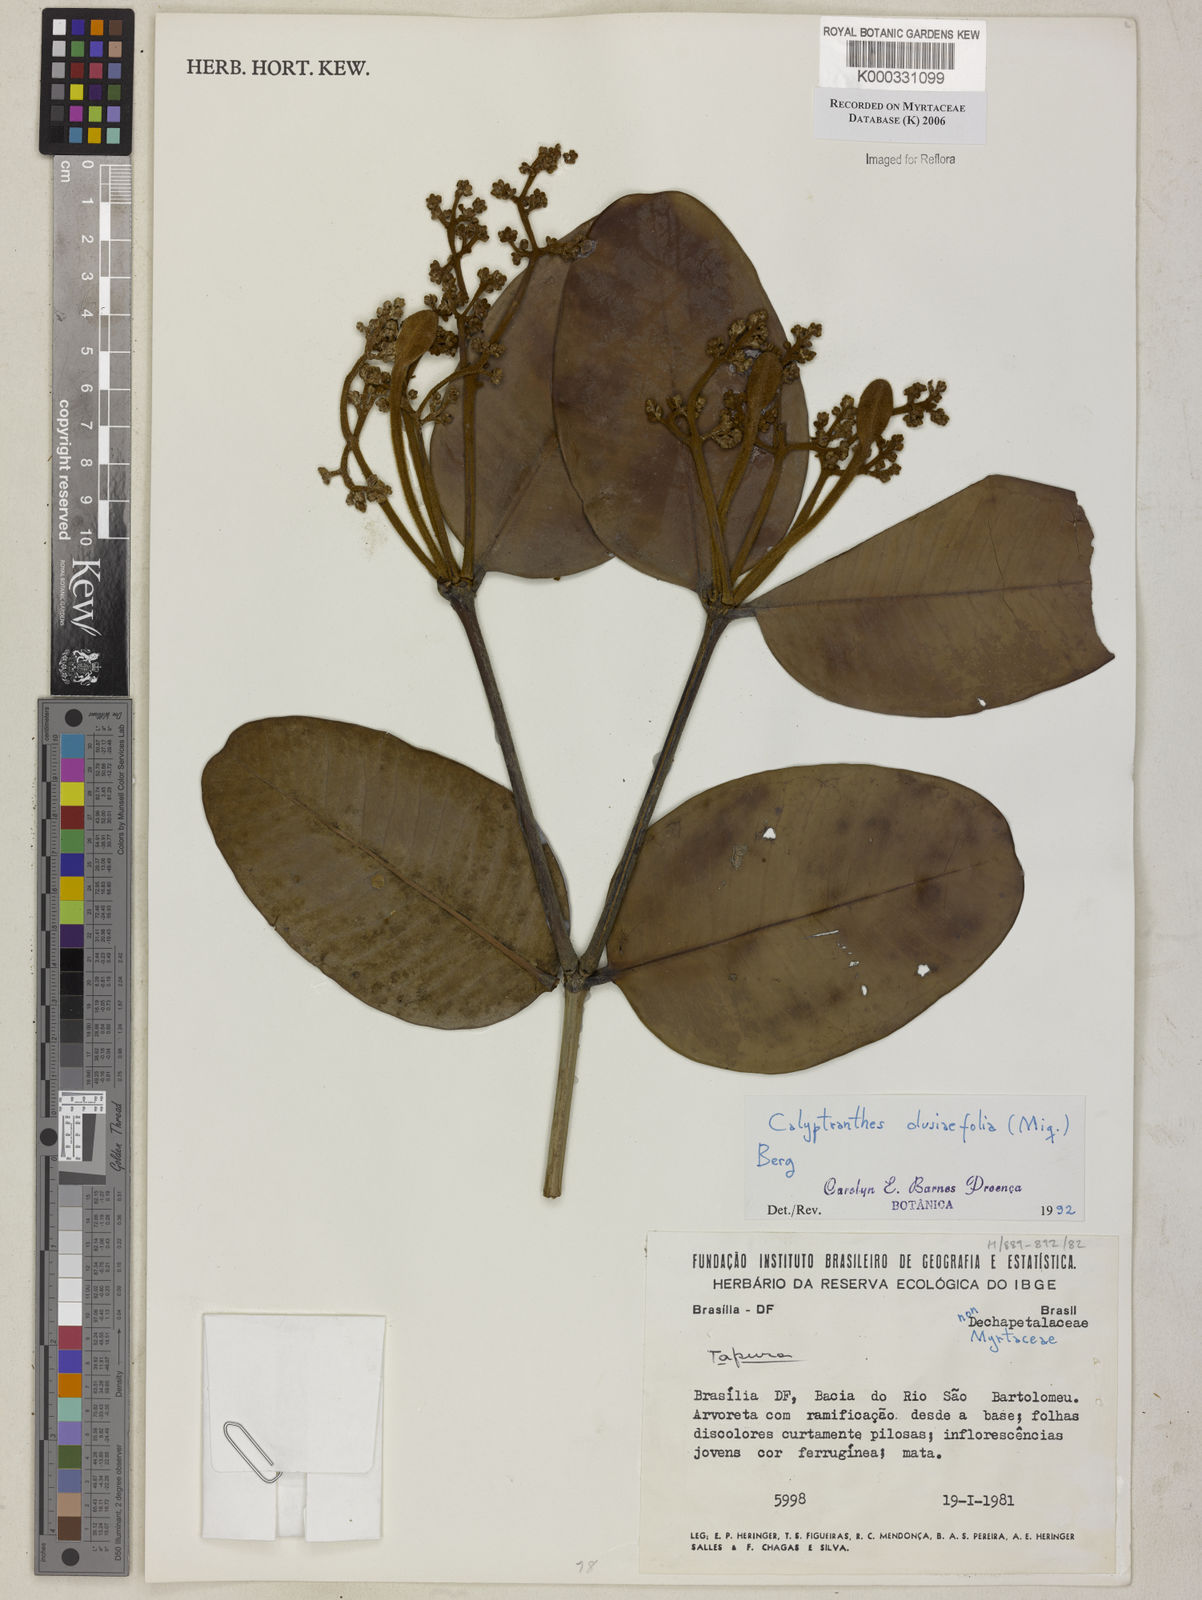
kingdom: Plantae
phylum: Tracheophyta
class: Magnoliopsida
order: Myrtales
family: Myrtaceae
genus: Calyptranthes
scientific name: Calyptranthes
